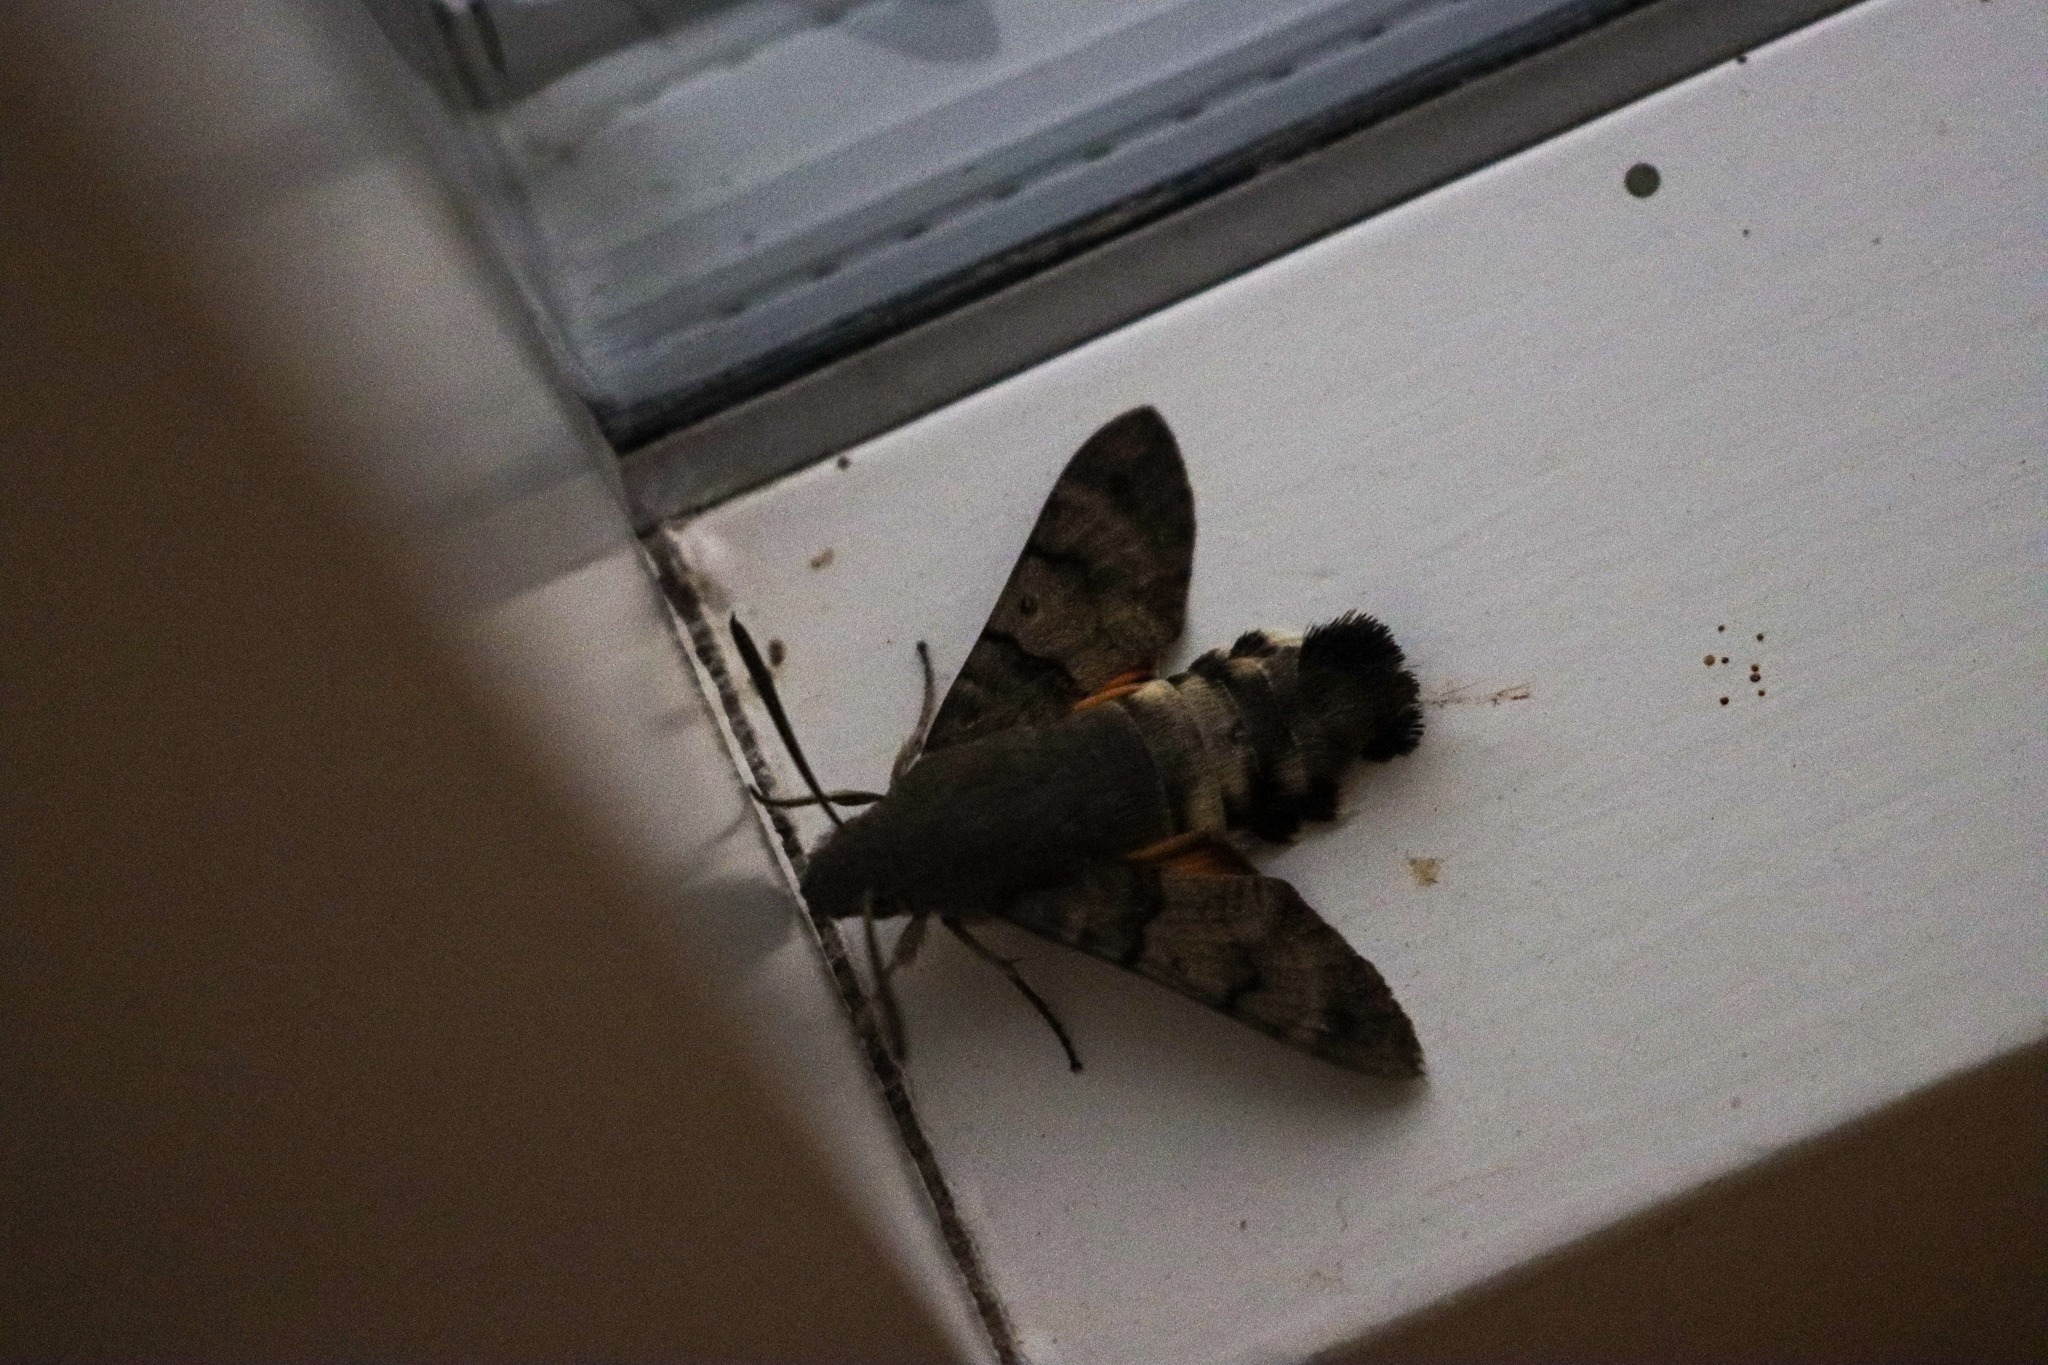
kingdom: Animalia
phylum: Arthropoda
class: Insecta
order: Lepidoptera
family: Sphingidae
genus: Macroglossum
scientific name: Macroglossum stellatarum
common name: Duehale
